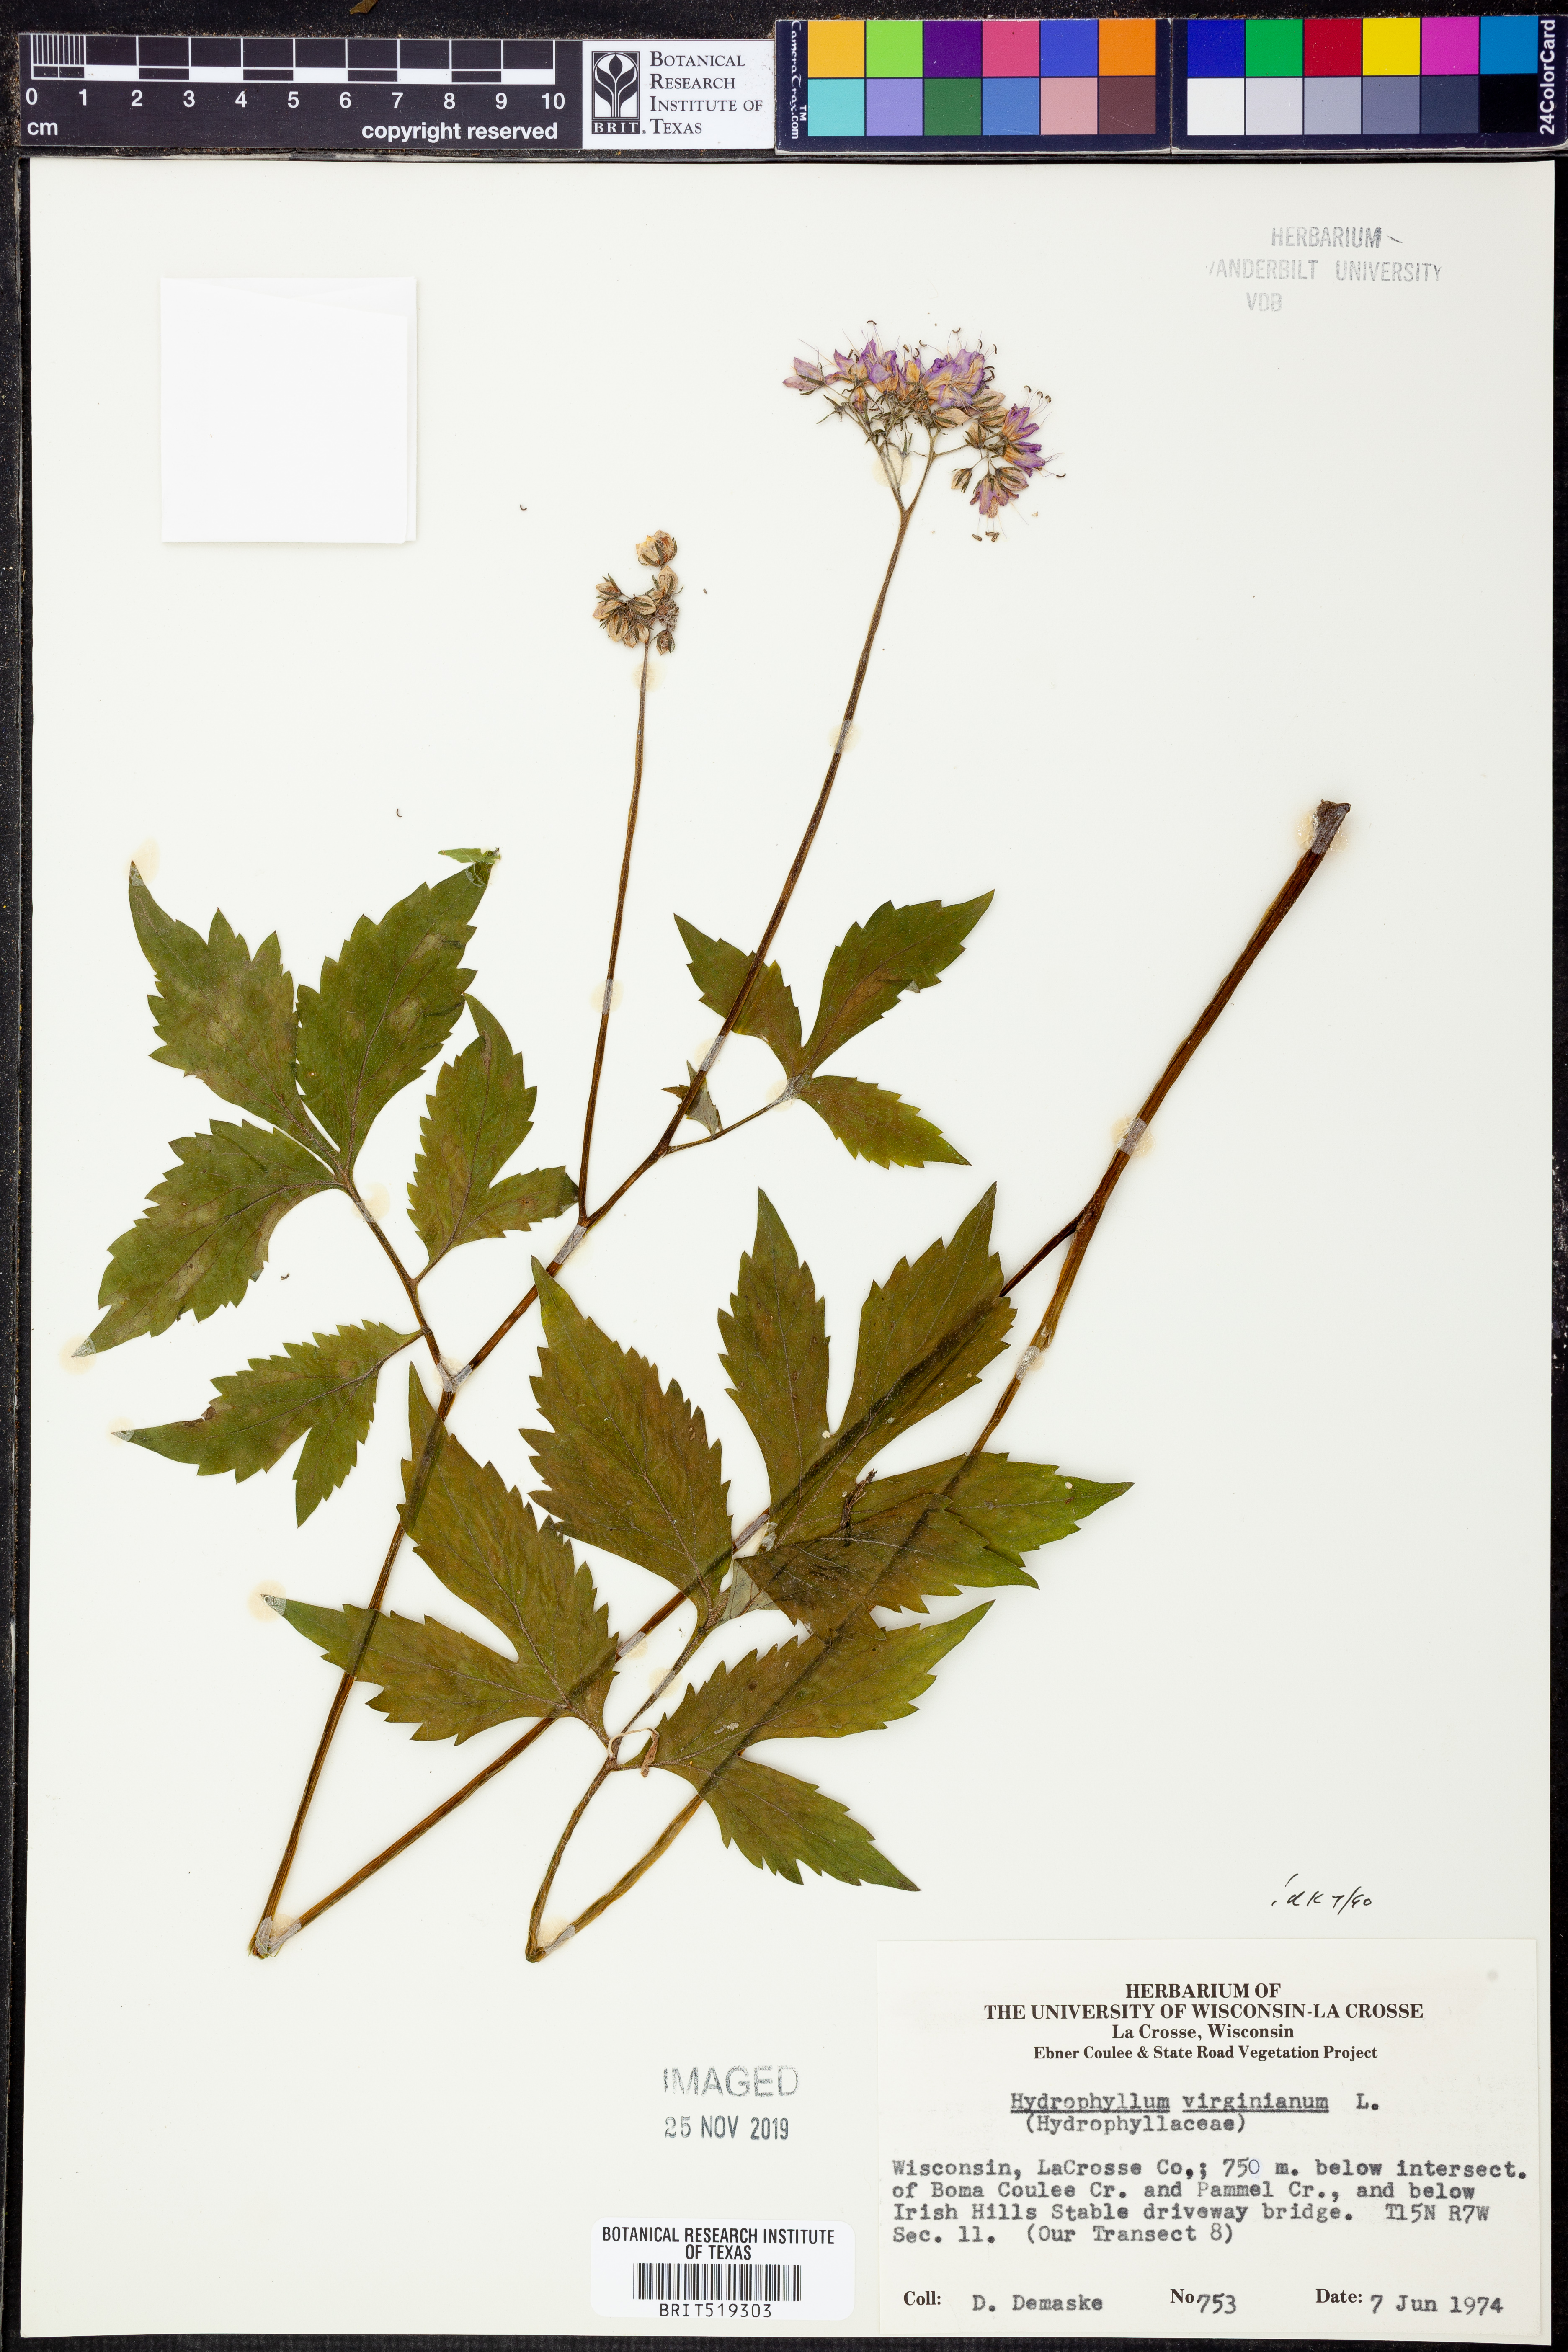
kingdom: Plantae
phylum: Tracheophyta
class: Magnoliopsida
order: Boraginales
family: Hydrophyllaceae
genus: Hydrophyllum
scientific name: Hydrophyllum virginianum
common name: Virginia waterleaf
